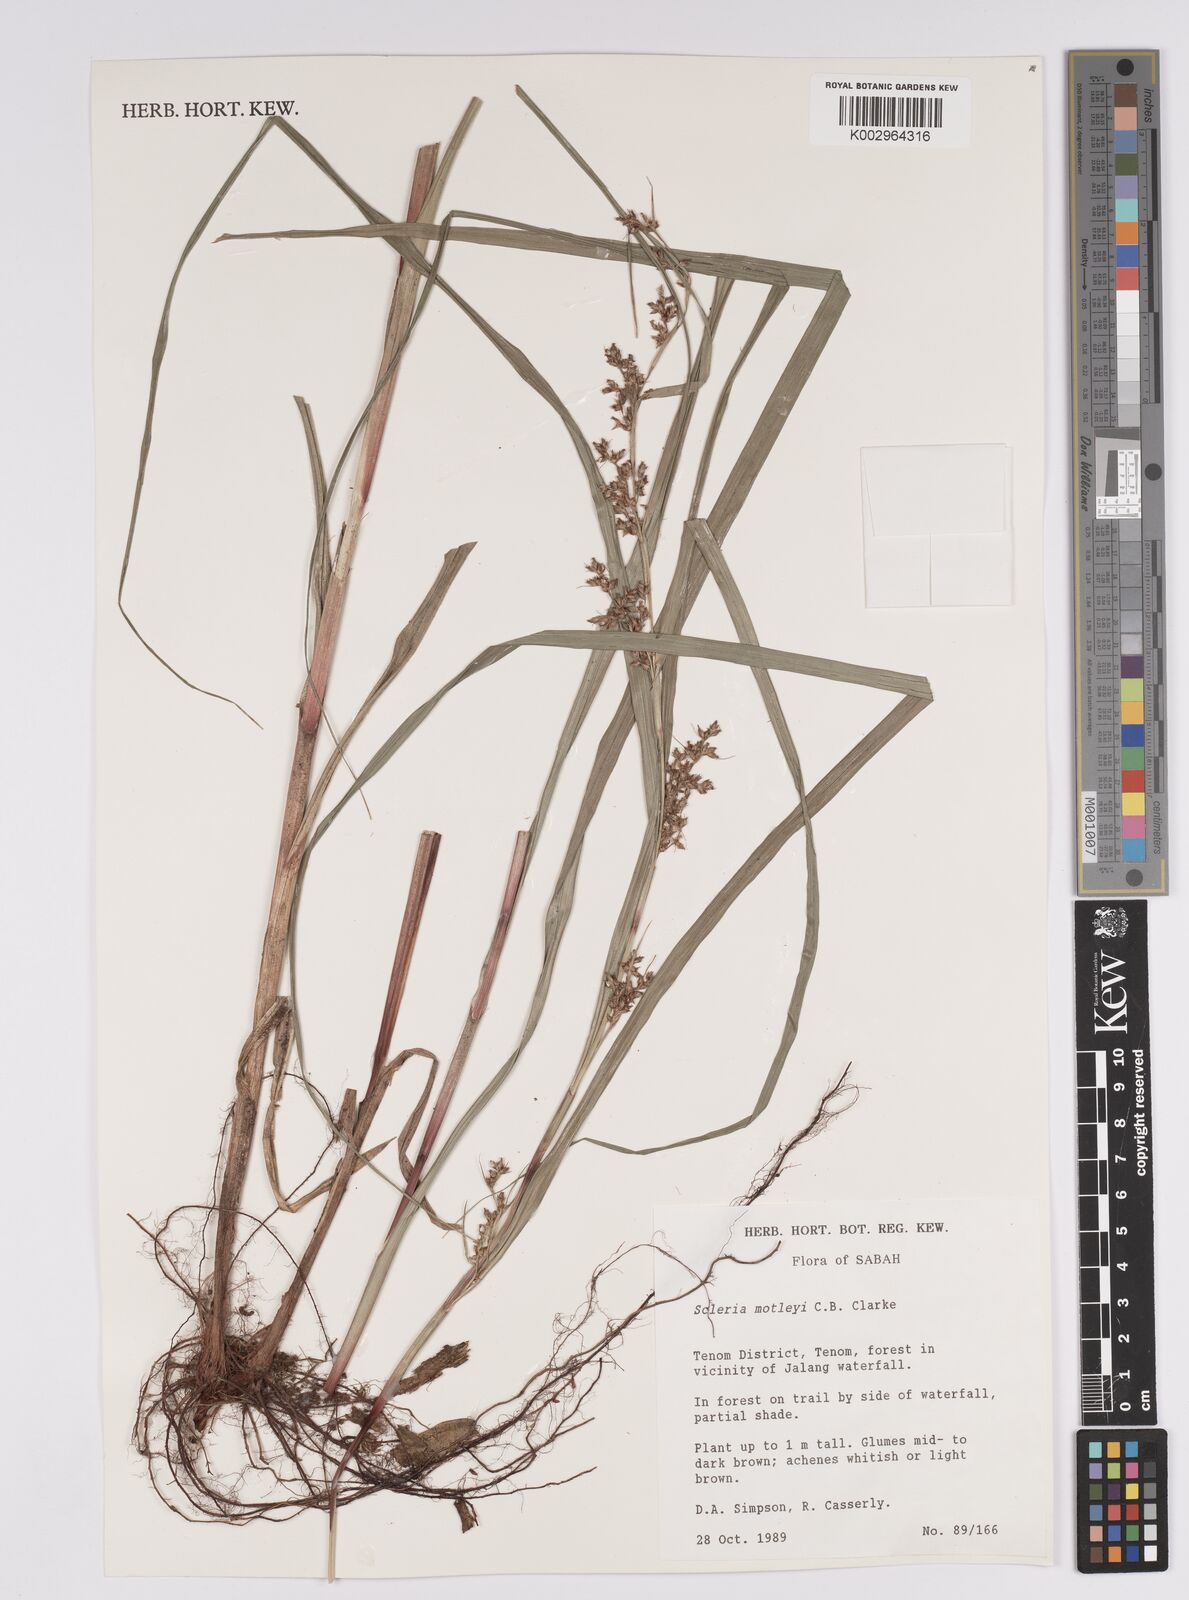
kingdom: Plantae
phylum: Tracheophyta
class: Liliopsida
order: Poales
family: Cyperaceae
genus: Scleria
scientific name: Scleria motleyi
